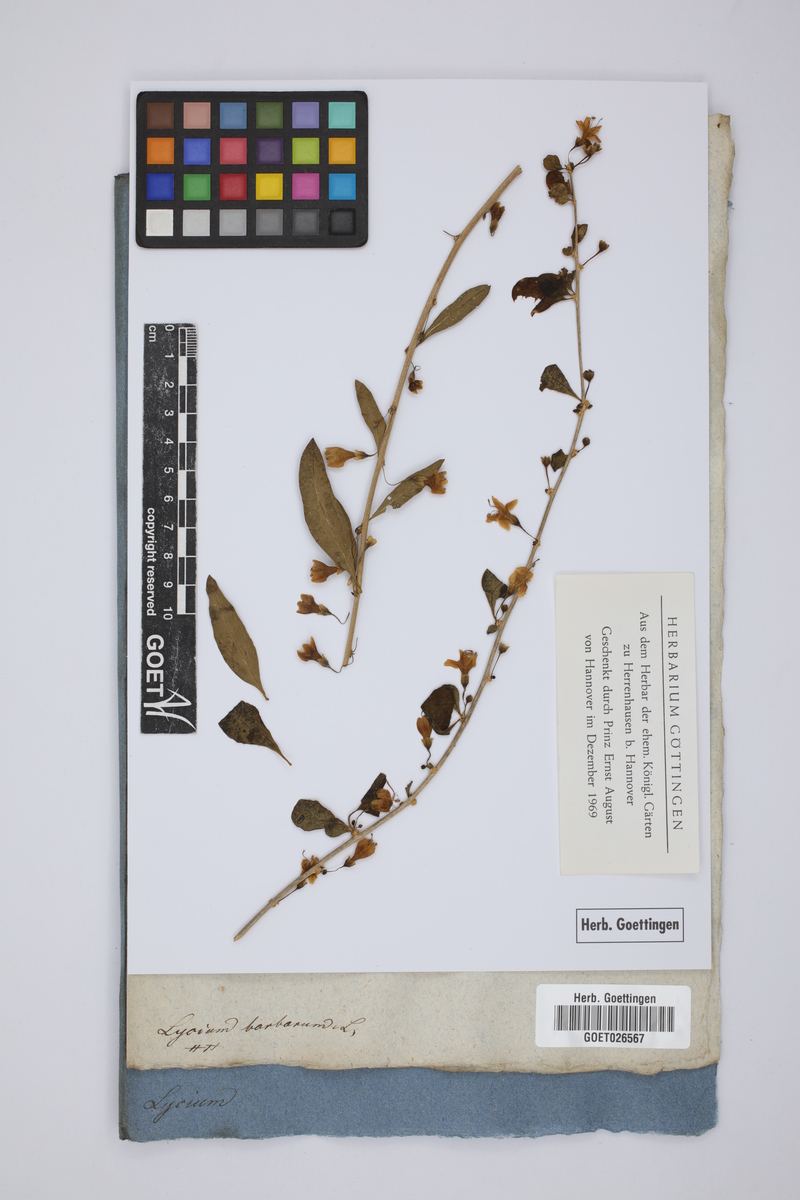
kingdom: Plantae
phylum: Tracheophyta
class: Magnoliopsida
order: Solanales
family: Solanaceae
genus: Lycium
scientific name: Lycium barbarum
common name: Duke of argyll's teaplant
